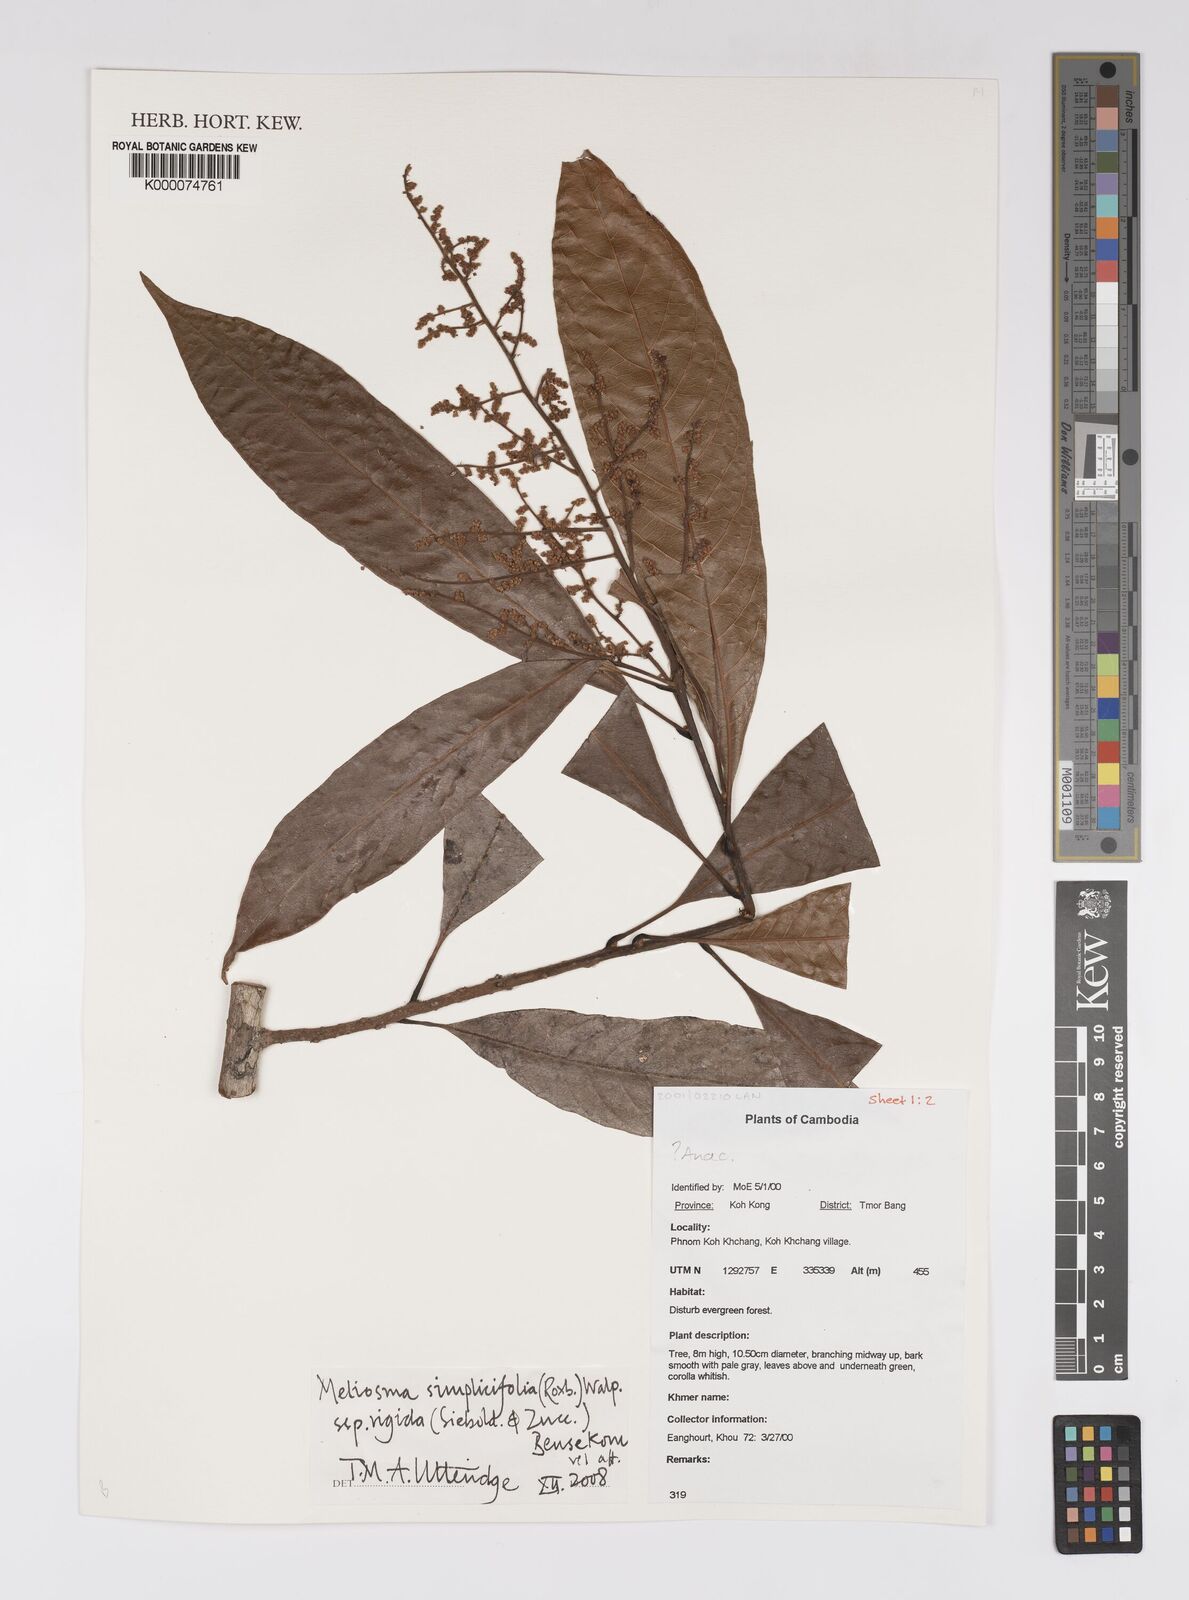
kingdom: Plantae
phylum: Tracheophyta
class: Magnoliopsida
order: Proteales
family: Sabiaceae
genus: Meliosma
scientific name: Meliosma rigida
